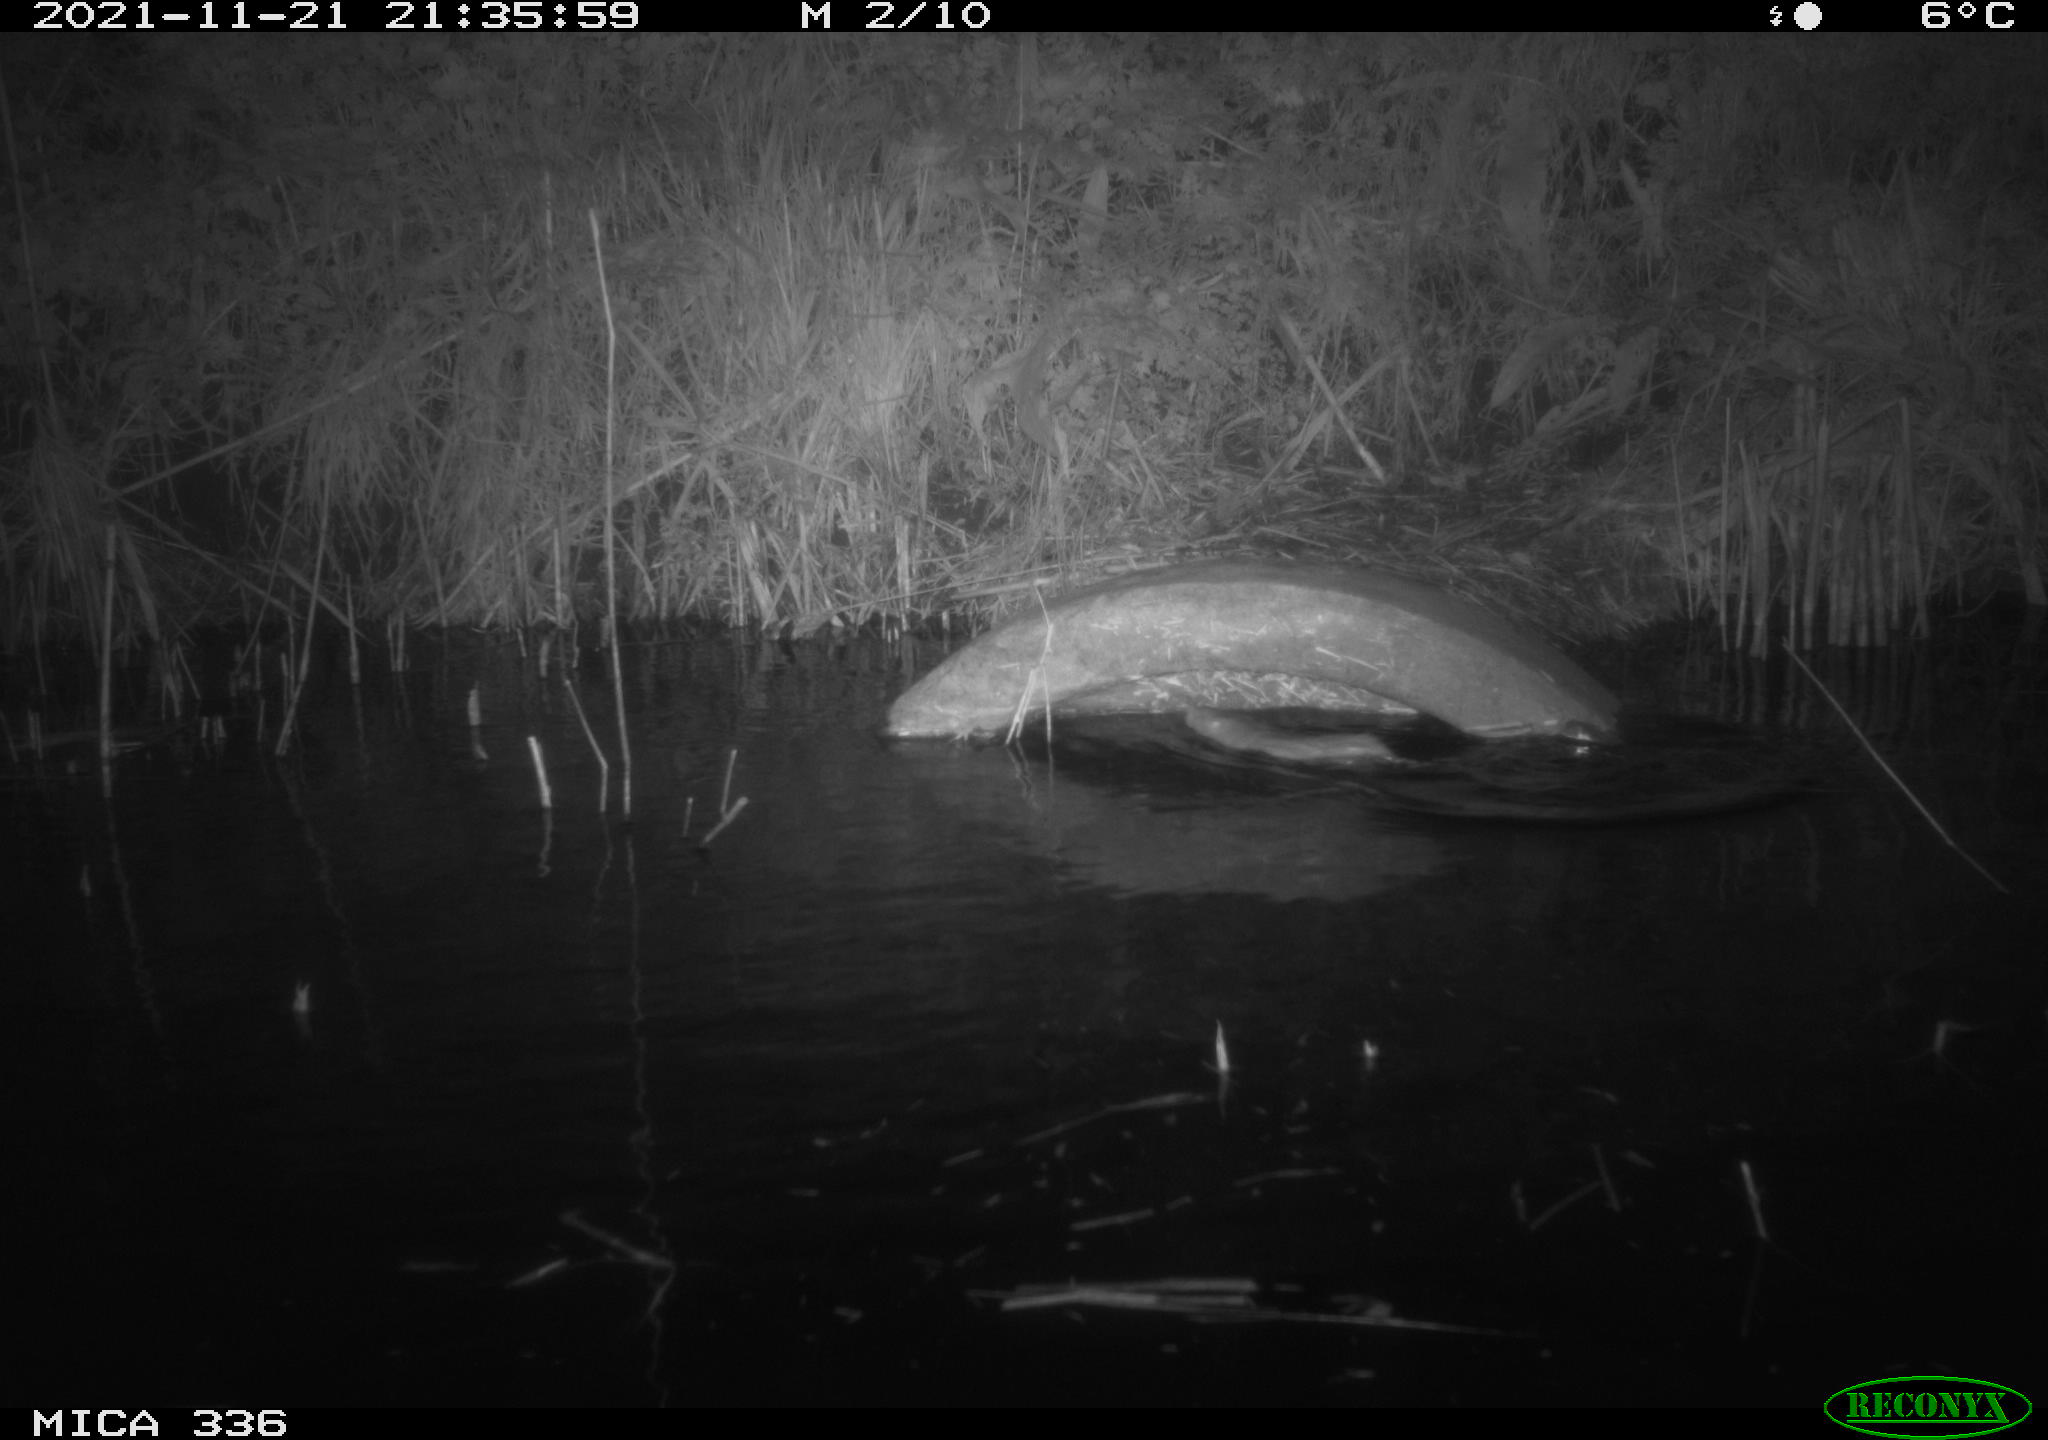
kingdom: Animalia
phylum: Chordata
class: Mammalia
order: Rodentia
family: Muridae
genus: Rattus
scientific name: Rattus norvegicus
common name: Brown rat
